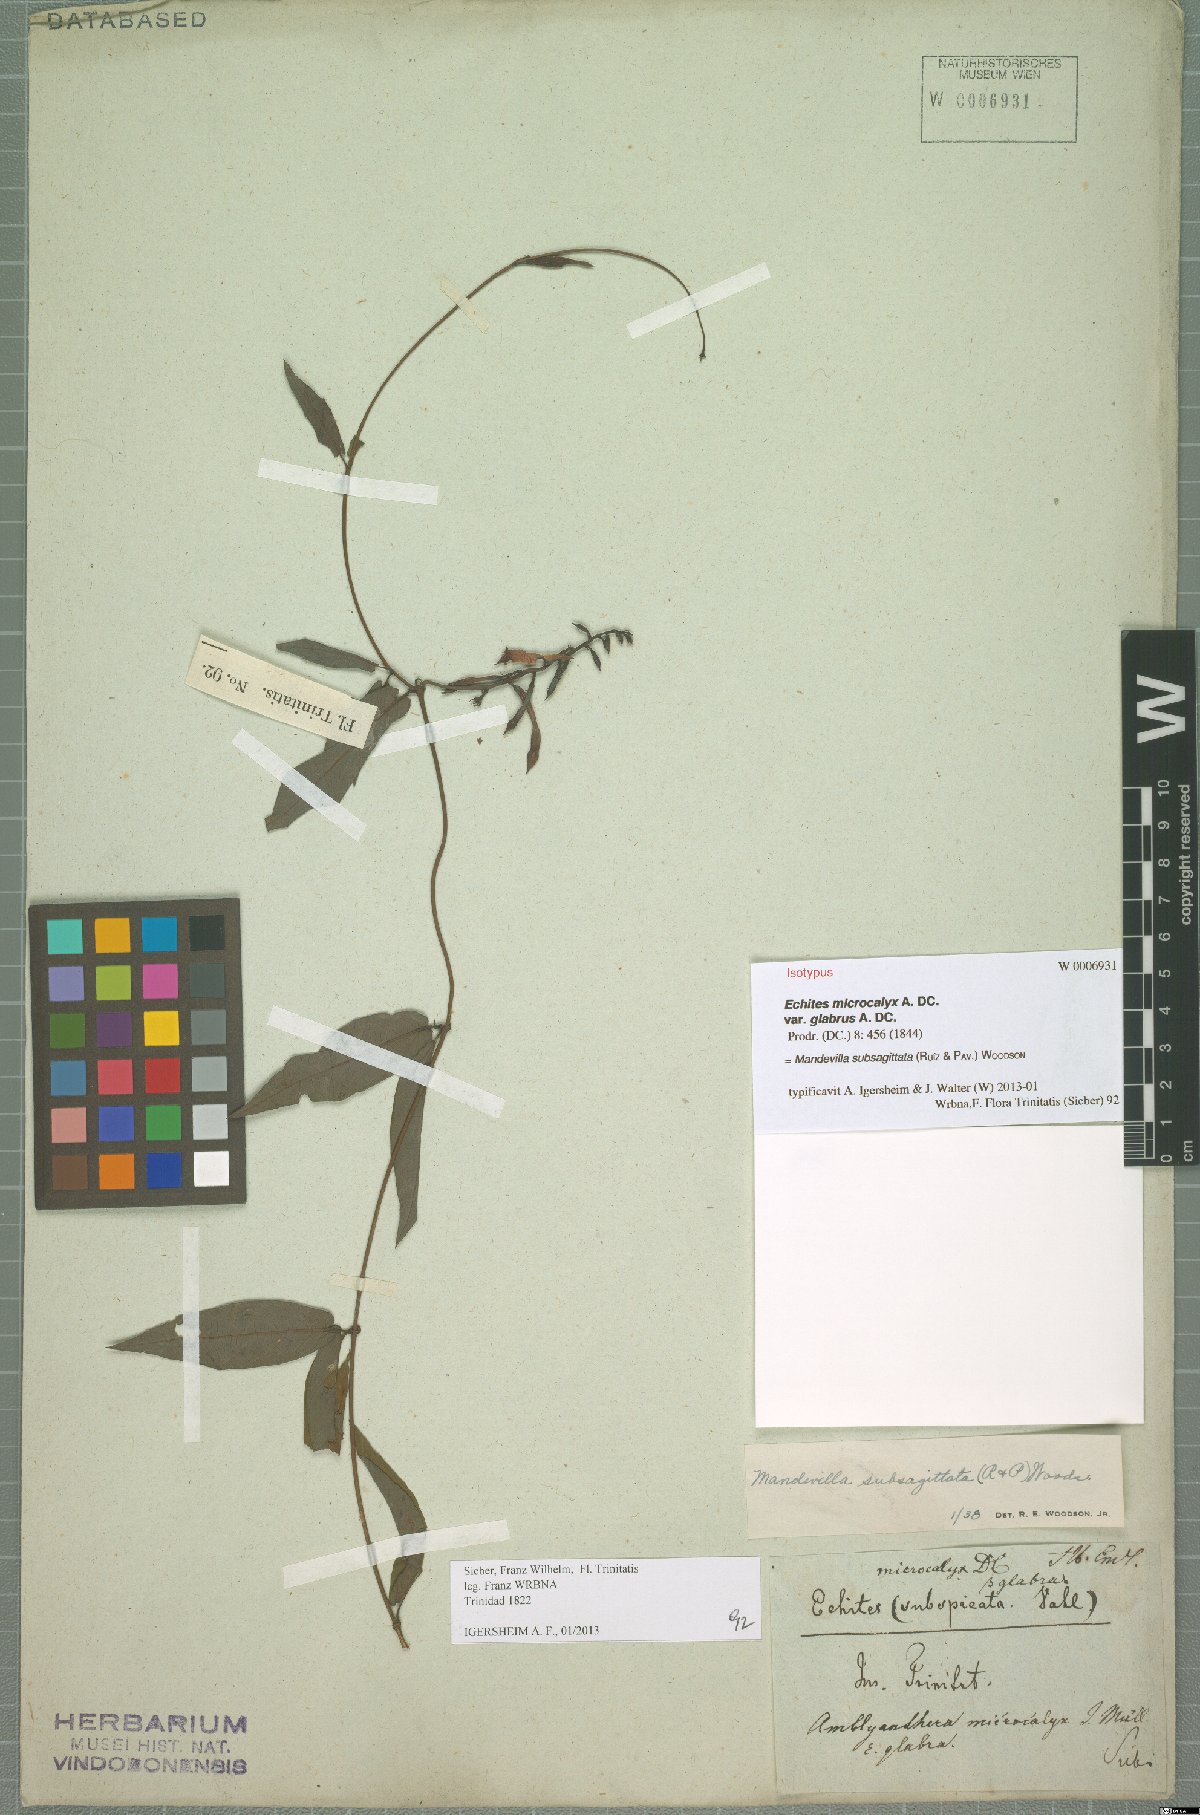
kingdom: Plantae
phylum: Tracheophyta
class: Magnoliopsida
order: Gentianales
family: Apocynaceae
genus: Mandevilla
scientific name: Mandevilla subsagittata
